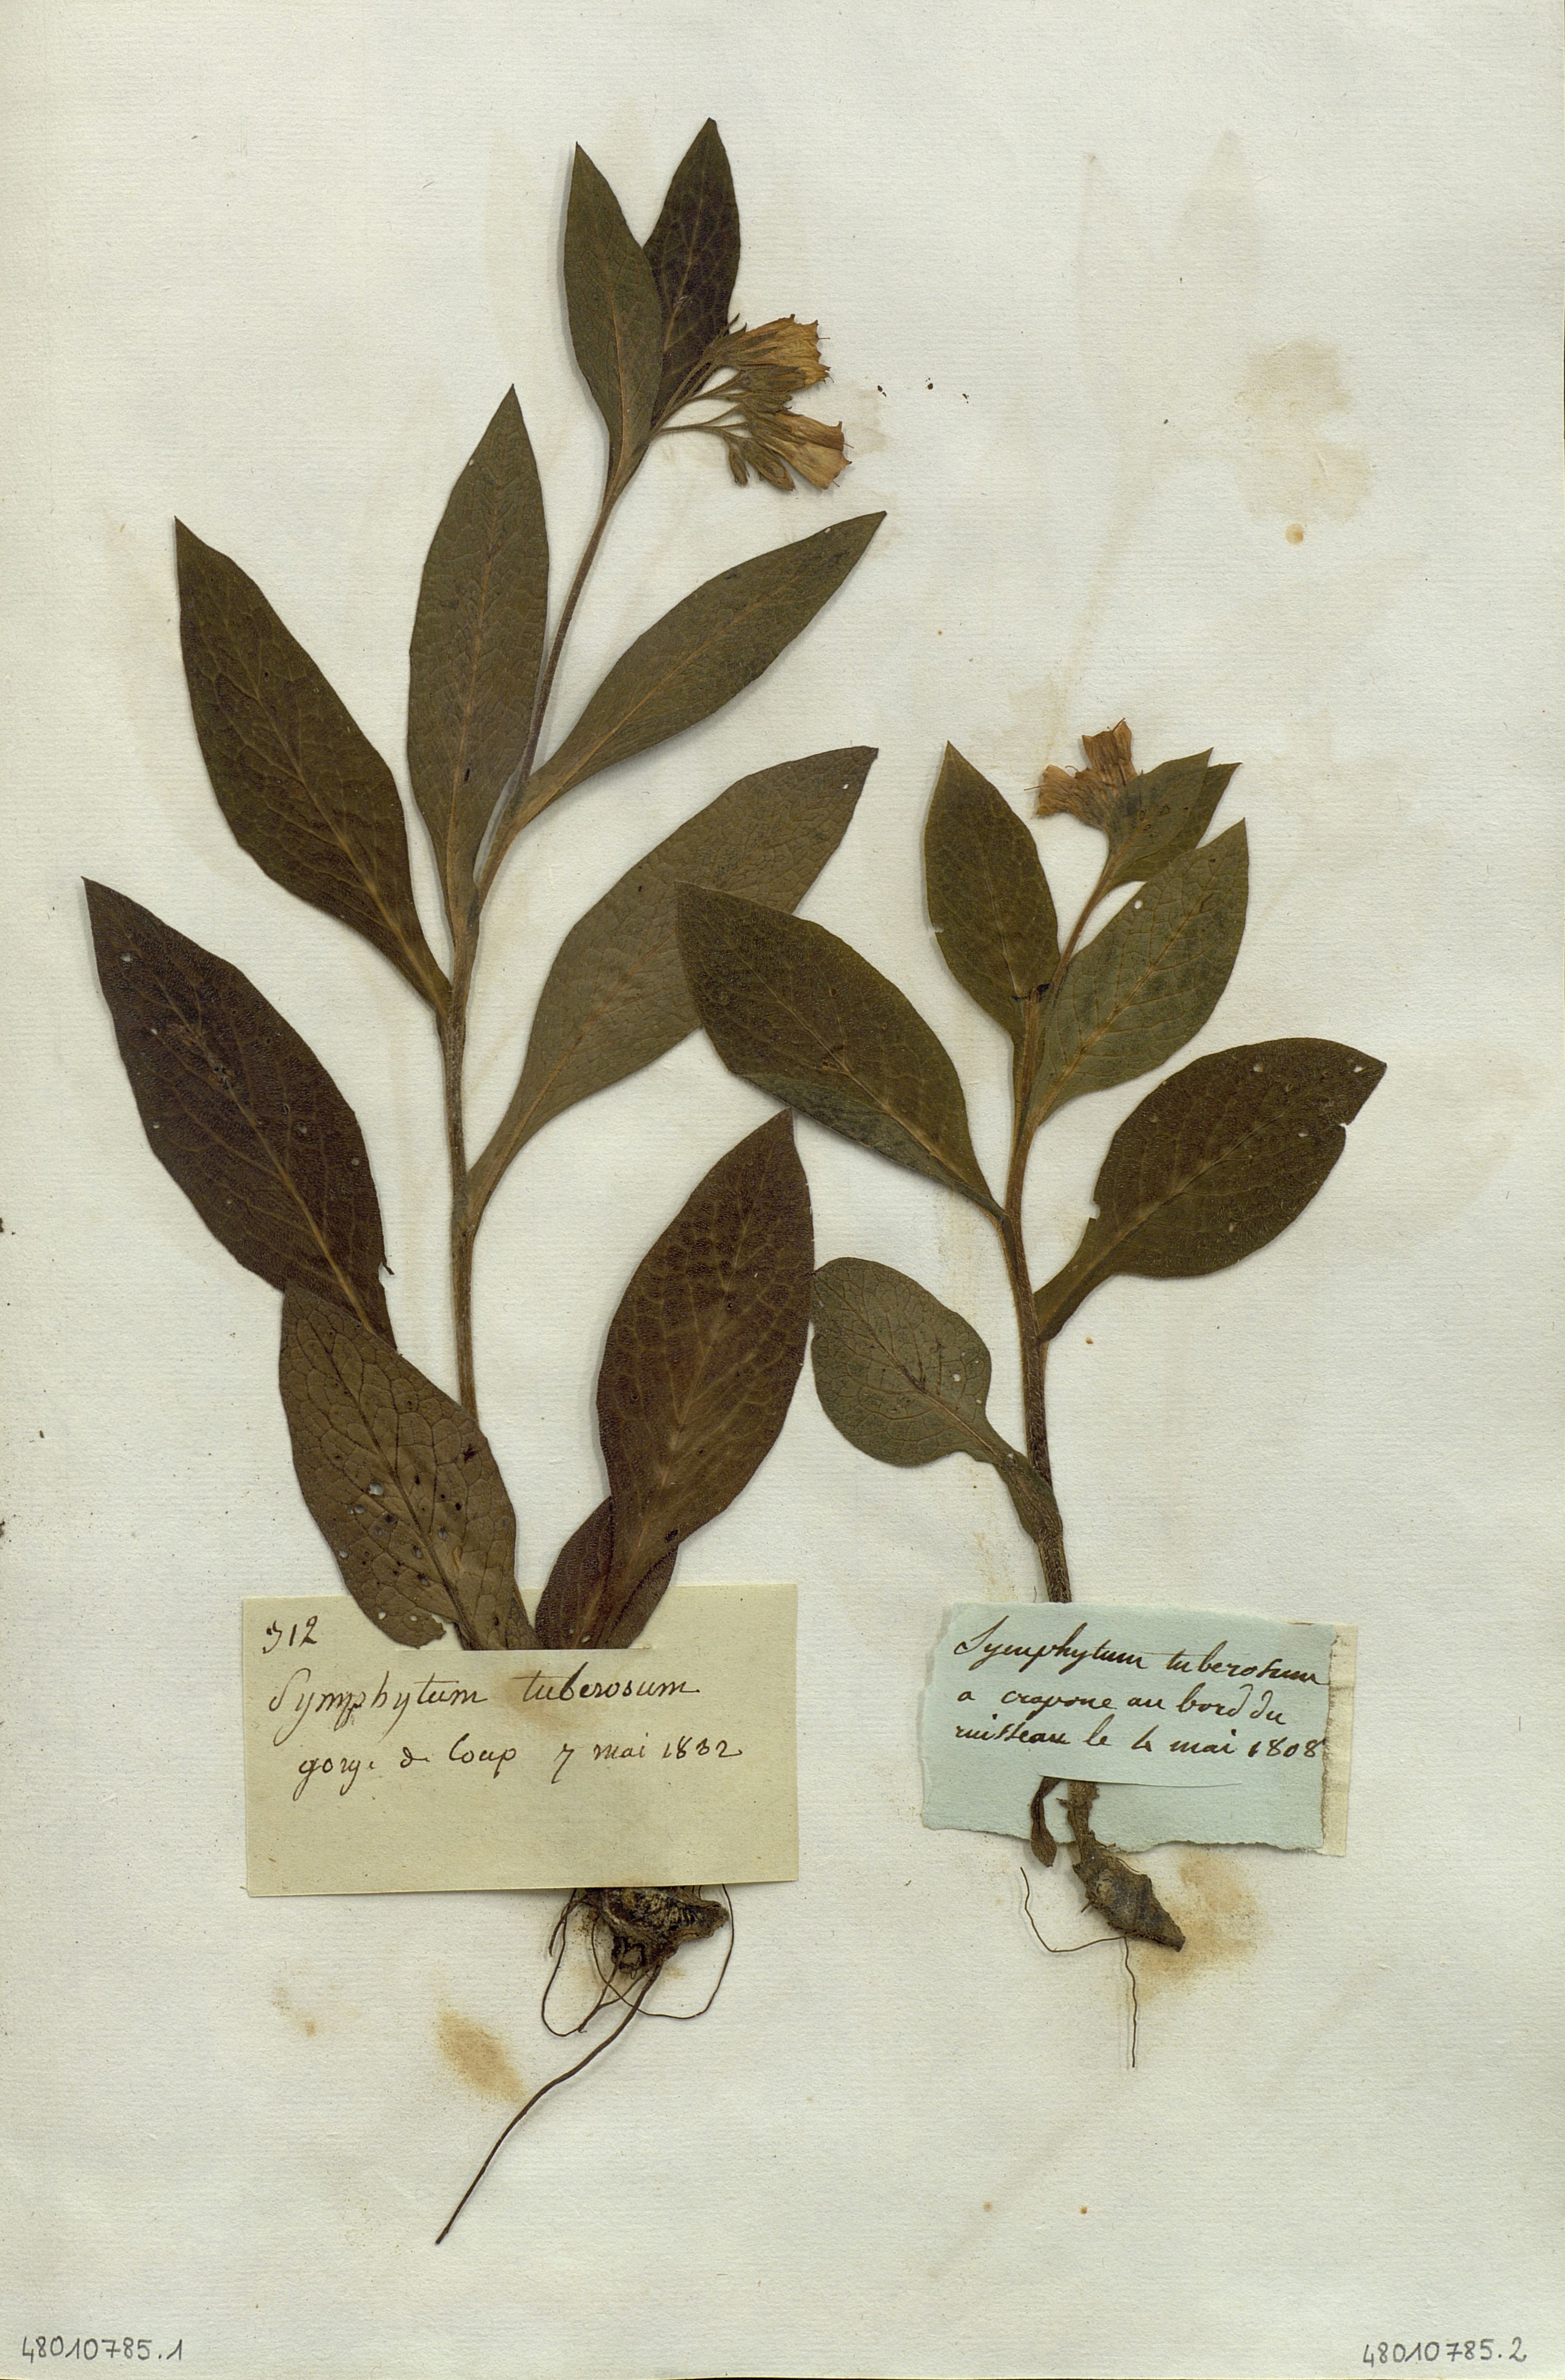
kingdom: Plantae
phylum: Tracheophyta
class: Magnoliopsida
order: Boraginales
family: Boraginaceae
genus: Symphytum
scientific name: Symphytum tuberosum
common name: Tuberous comfrey
